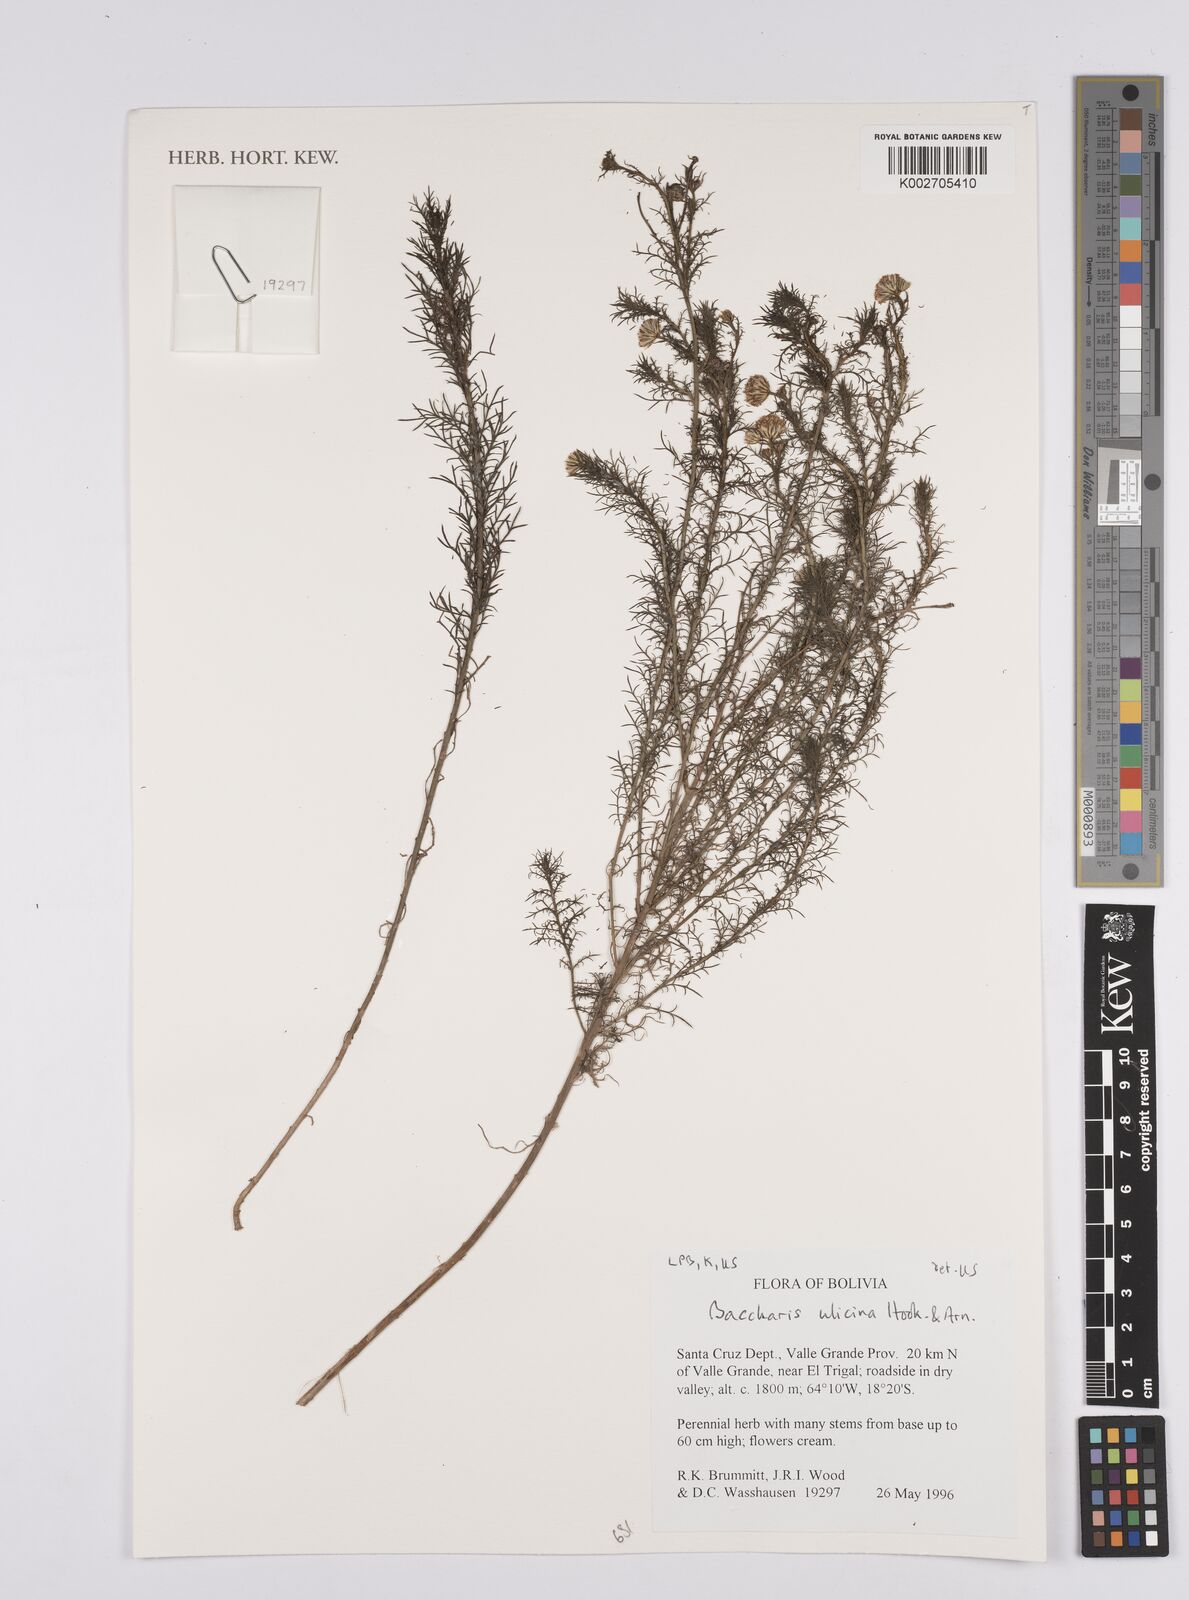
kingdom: Plantae
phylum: Tracheophyta
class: Magnoliopsida
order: Asterales
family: Asteraceae
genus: Baccharis
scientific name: Baccharis ulicina
